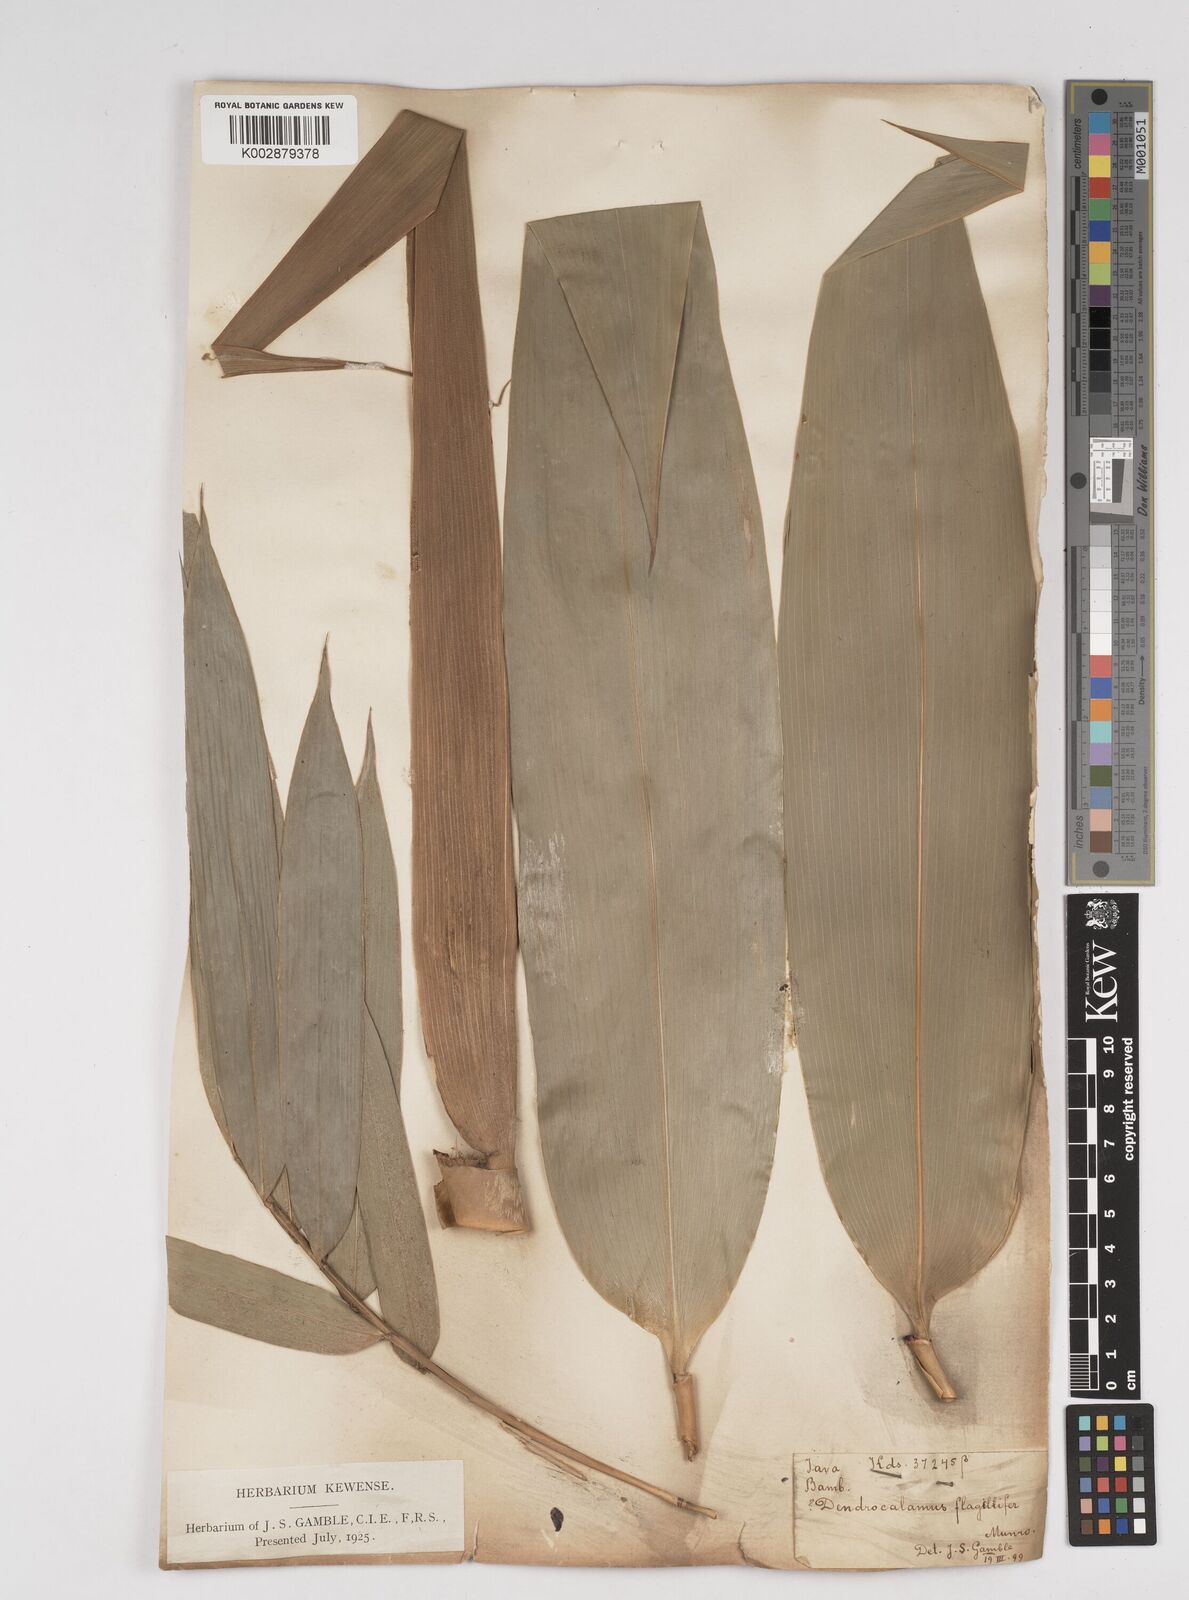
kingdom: Plantae
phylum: Tracheophyta
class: Liliopsida
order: Poales
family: Poaceae
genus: Dendrocalamus
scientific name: Dendrocalamus asper
